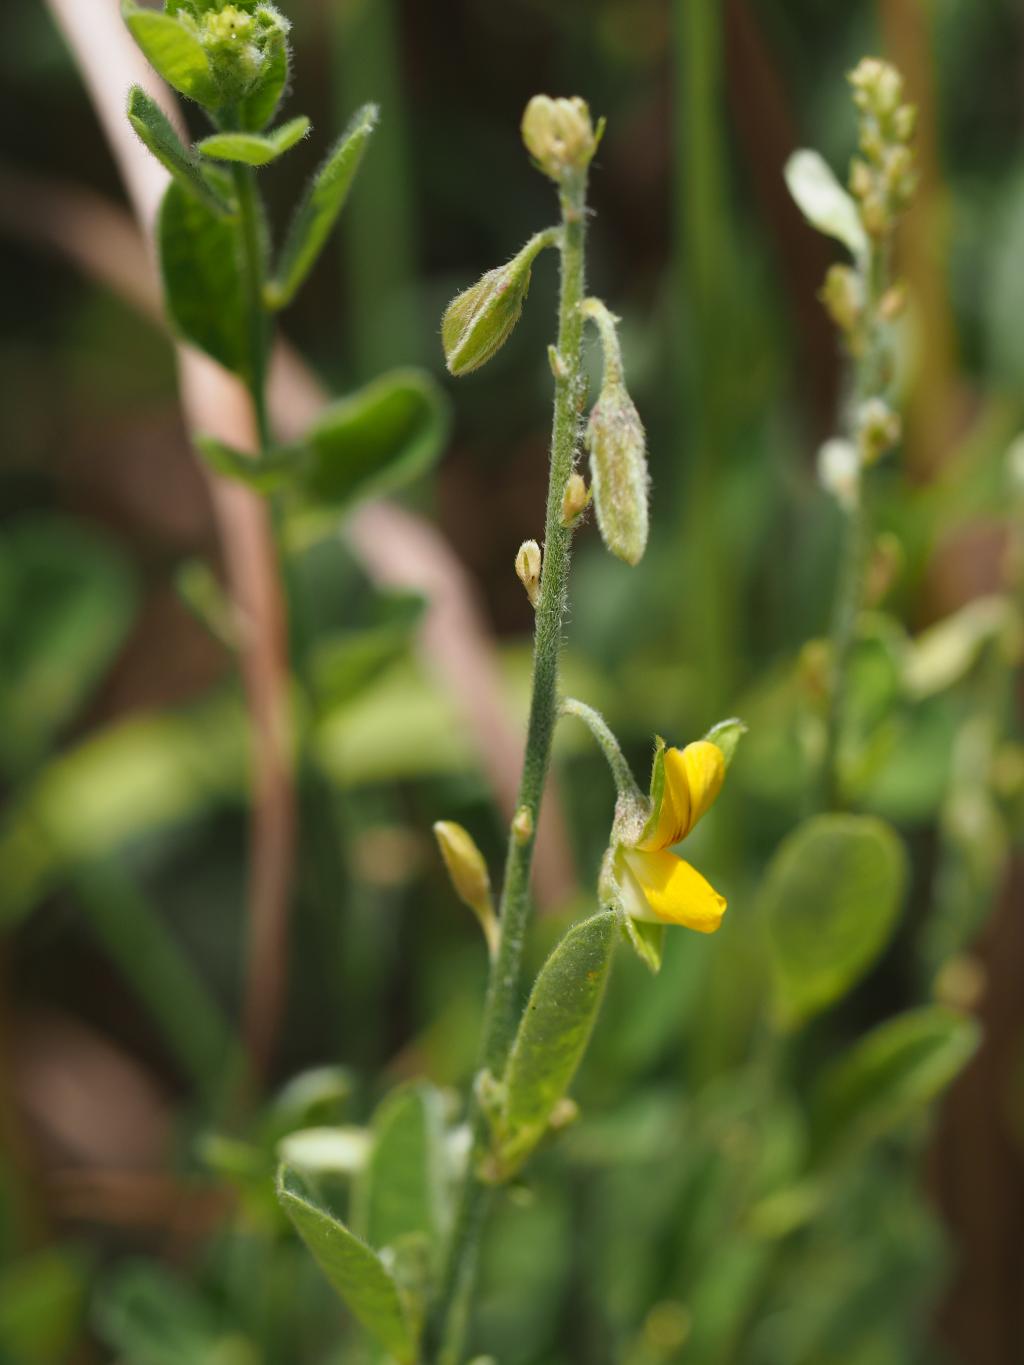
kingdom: Plantae
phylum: Tracheophyta
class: Magnoliopsida
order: Fabales
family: Fabaceae
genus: Crotalaria
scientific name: Crotalaria albida
